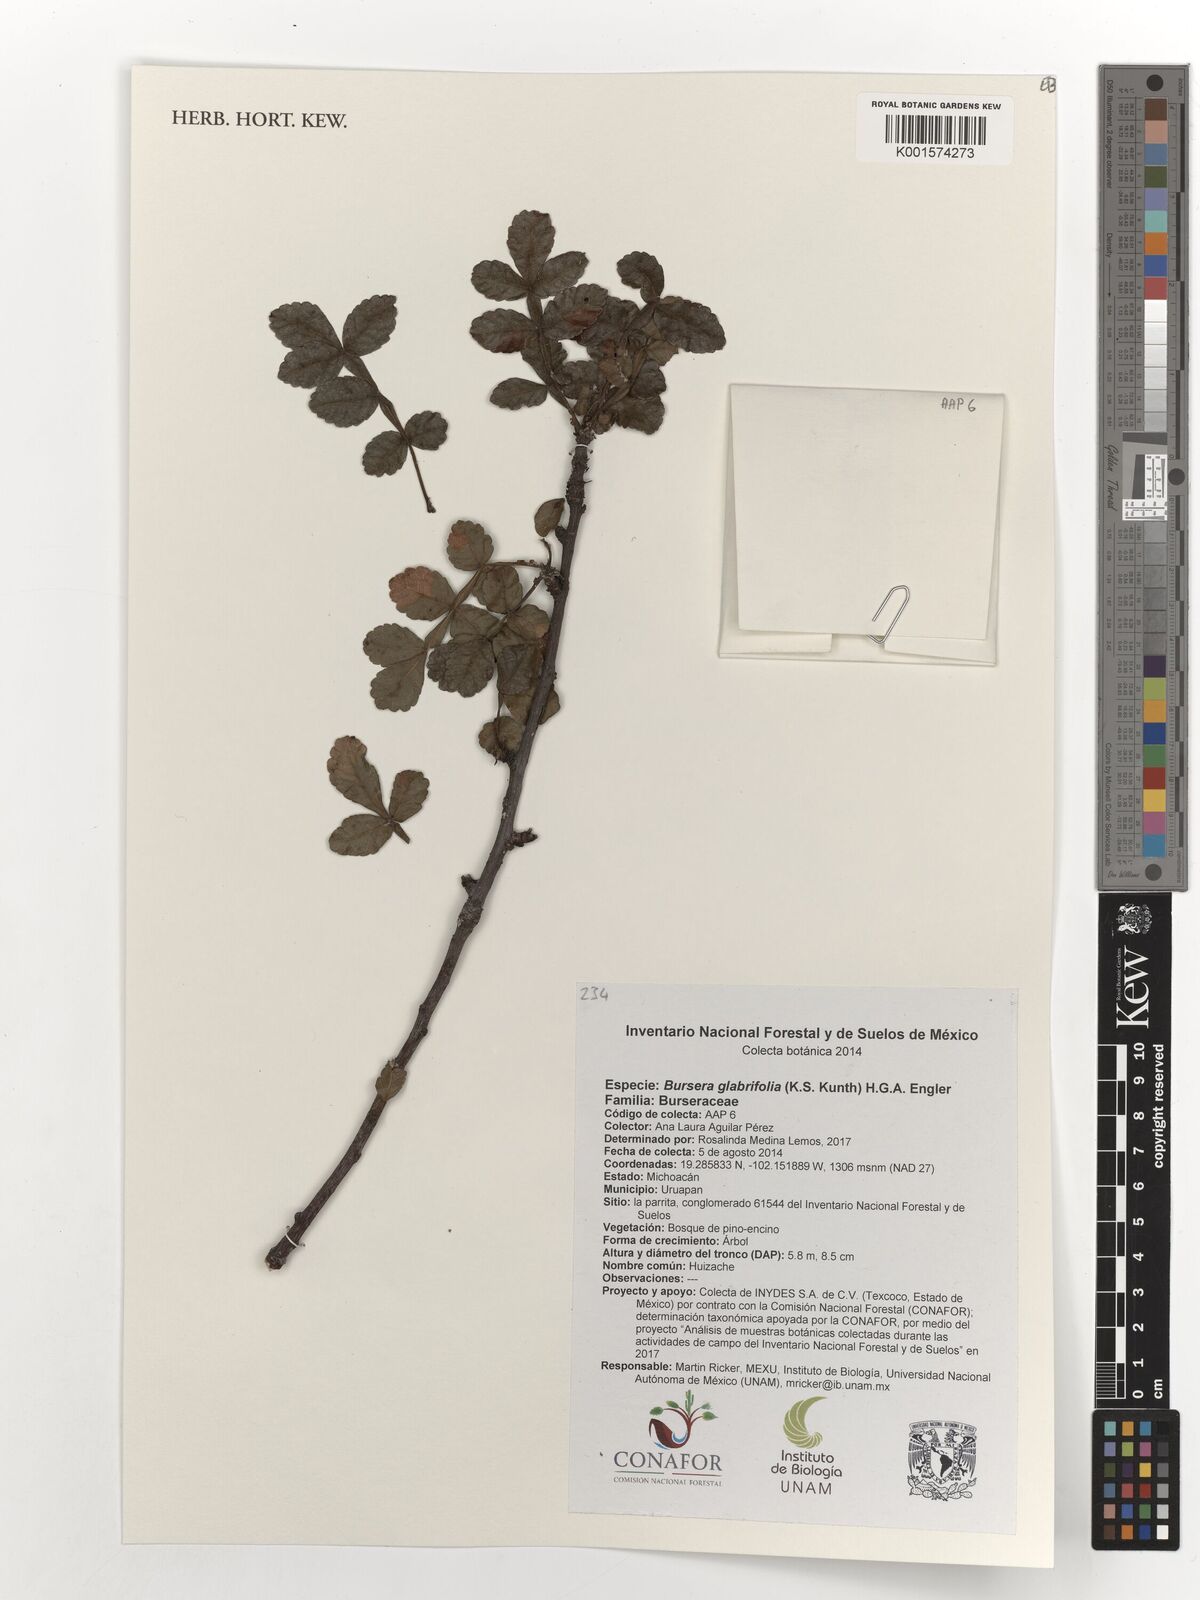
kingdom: Plantae
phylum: Tracheophyta
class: Magnoliopsida
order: Sapindales
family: Burseraceae
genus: Bursera
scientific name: Bursera glabrifolia
